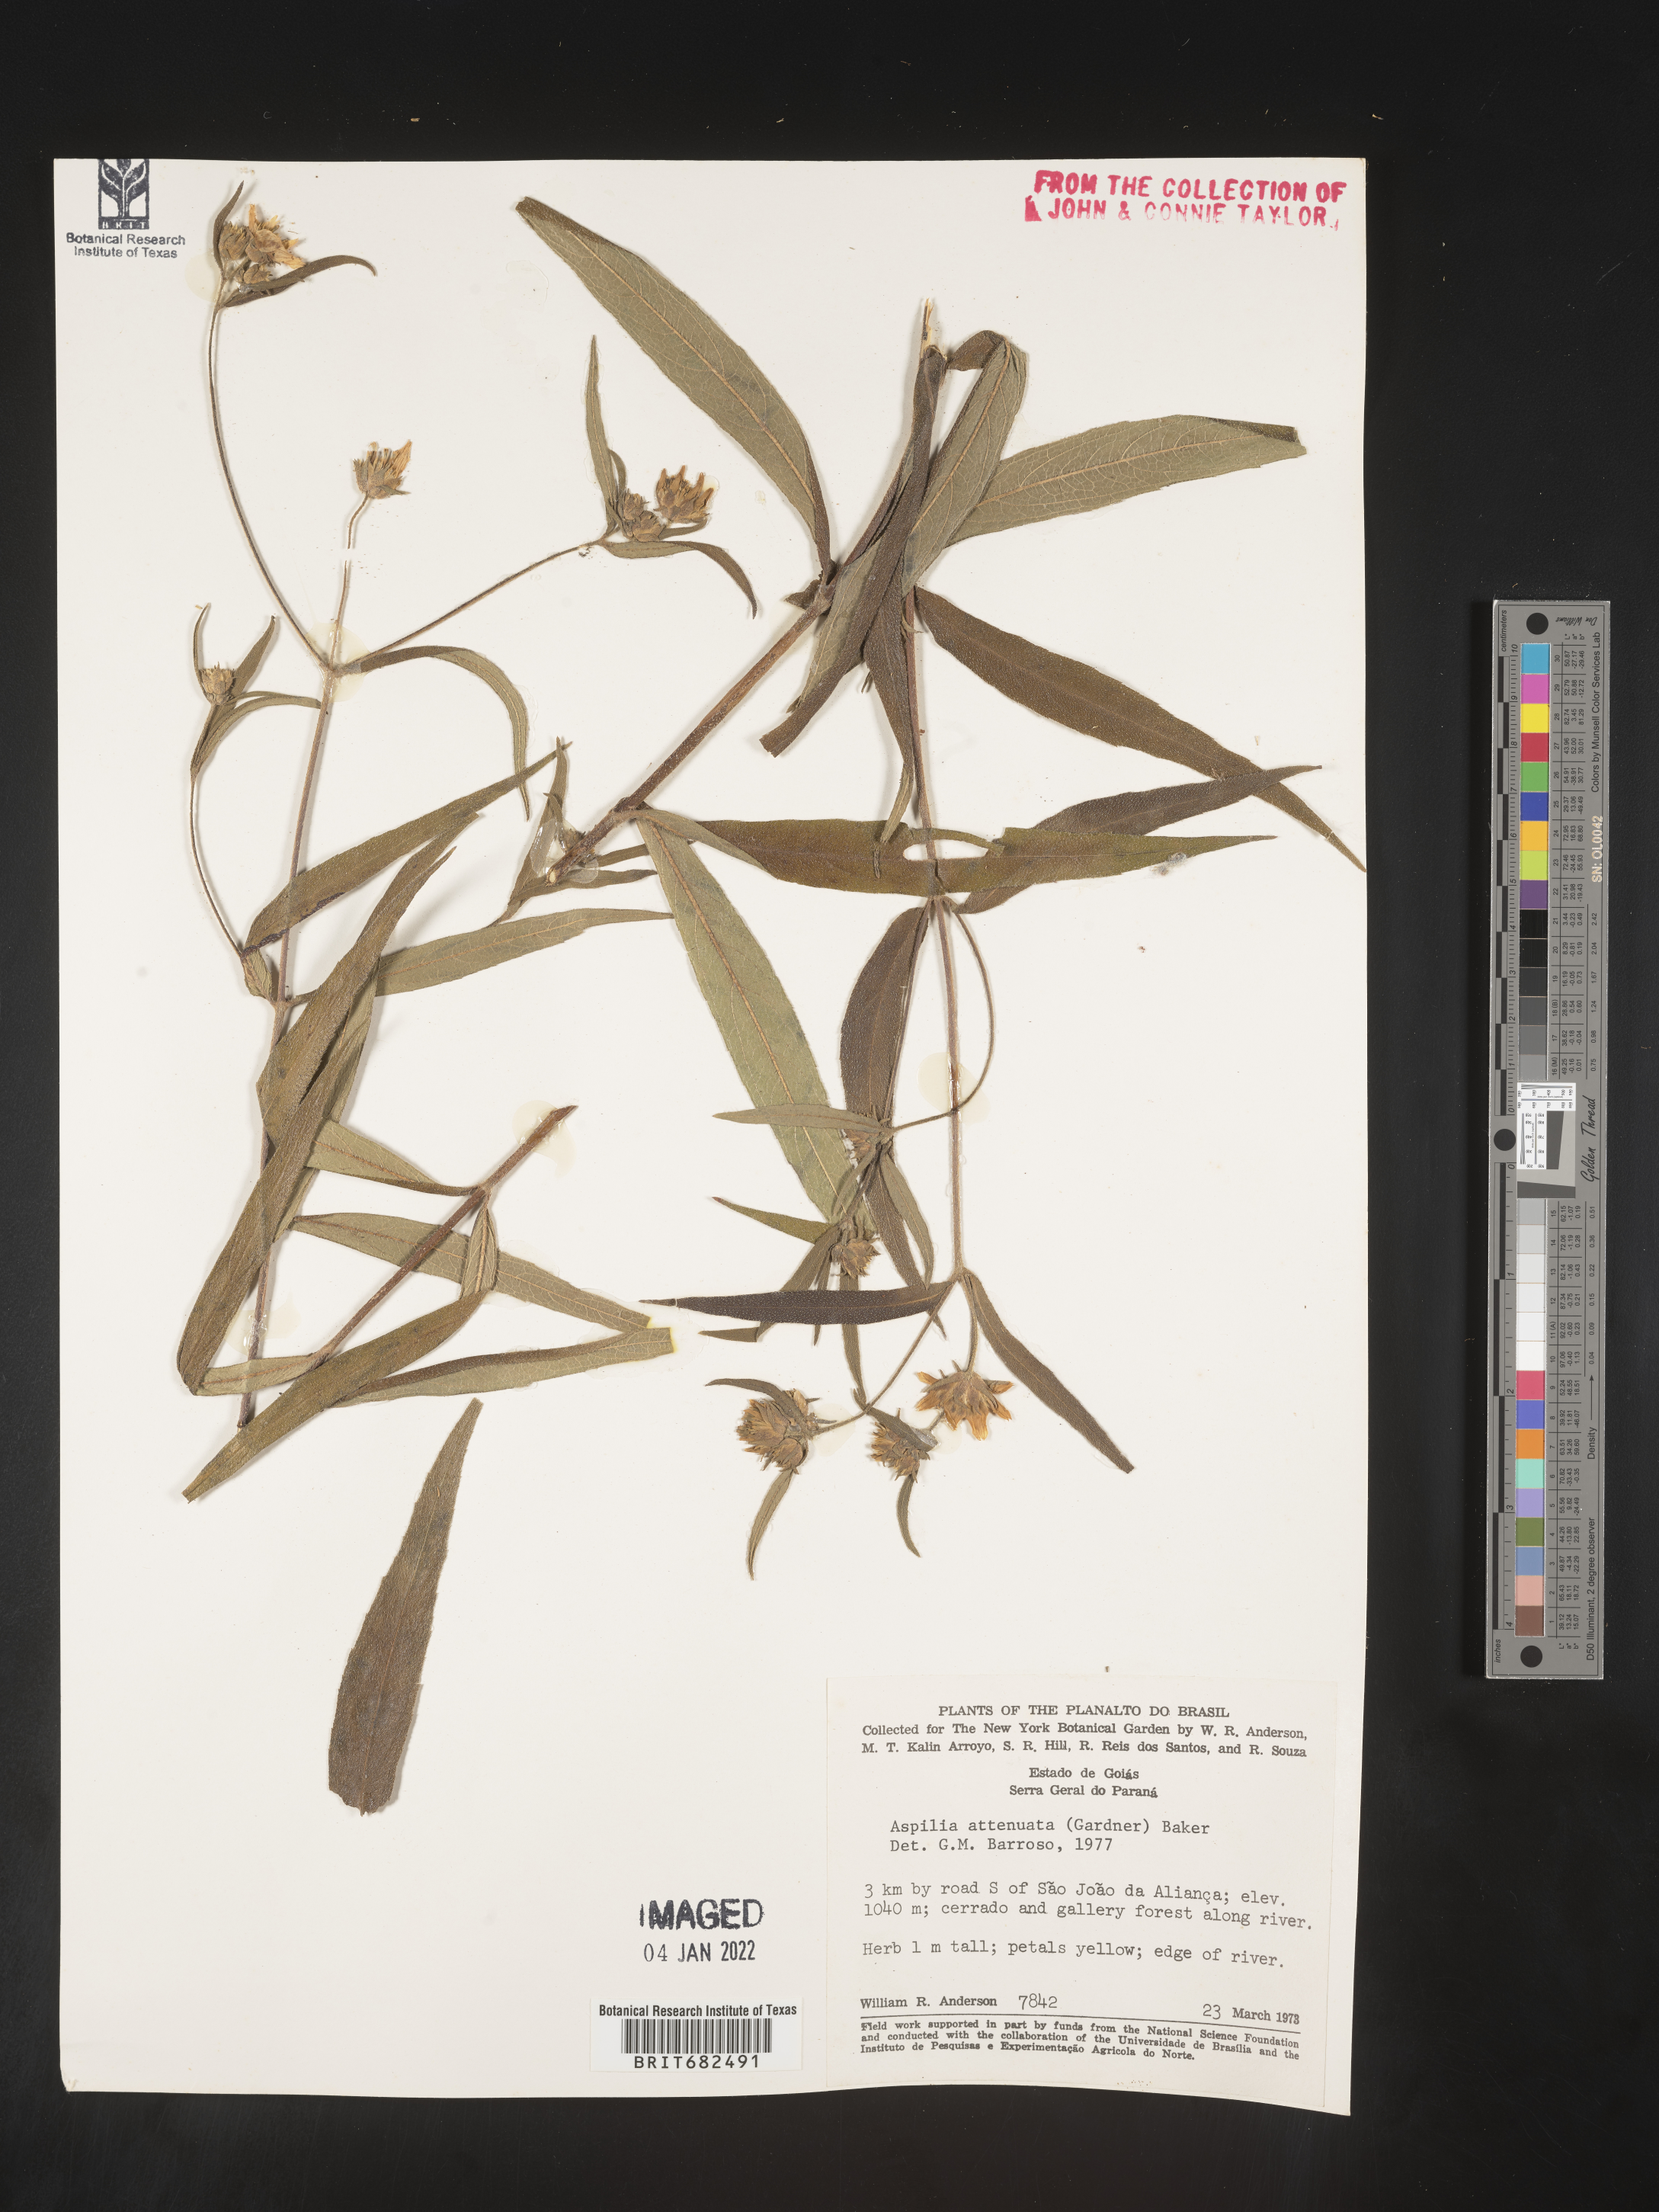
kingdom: Plantae
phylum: Tracheophyta
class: Magnoliopsida
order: Asterales
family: Asteraceae
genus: Aspilia
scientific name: Aspilia
